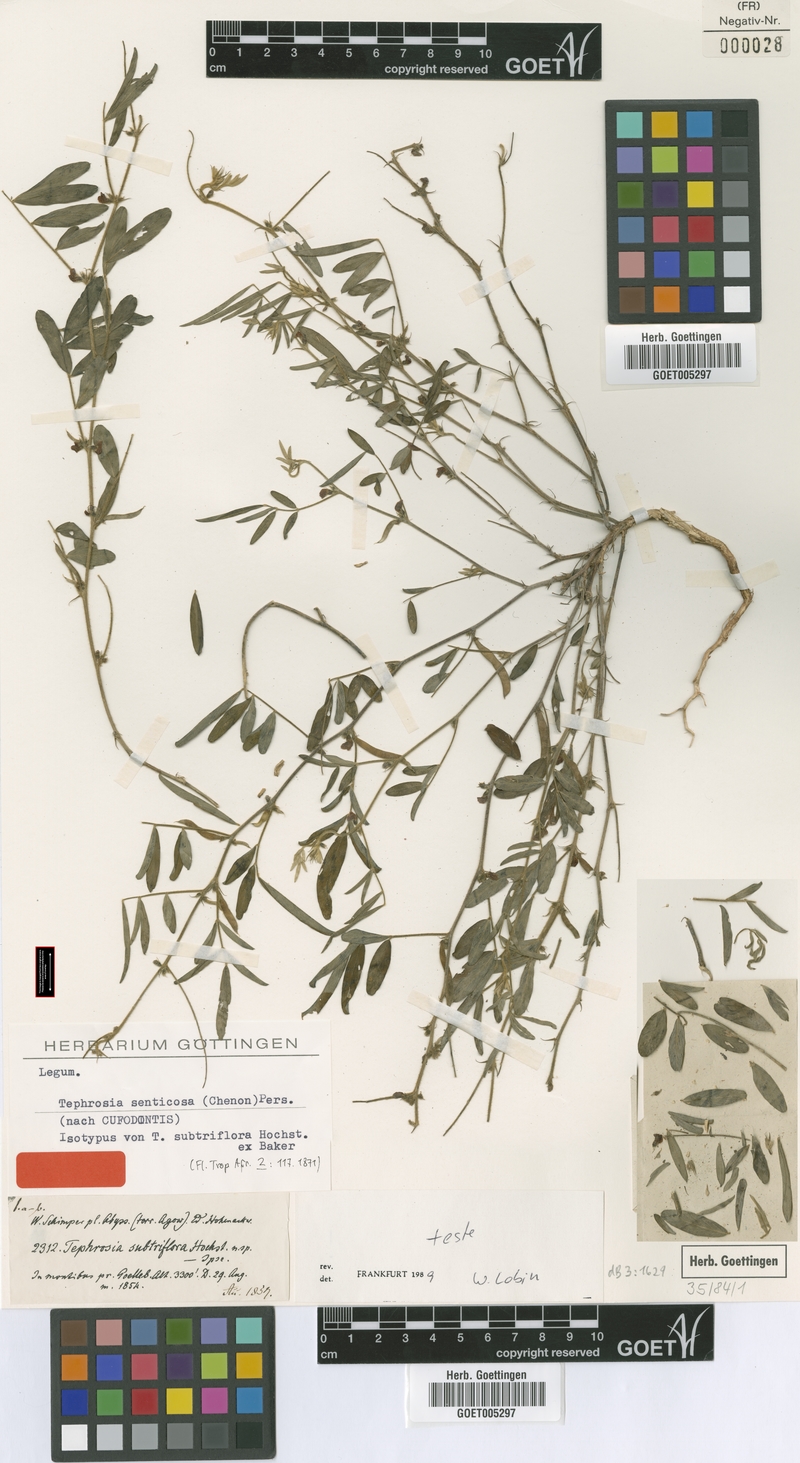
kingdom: Plantae
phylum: Tracheophyta
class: Magnoliopsida
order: Fabales
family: Fabaceae
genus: Tephrosia
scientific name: Tephrosia senticosa
